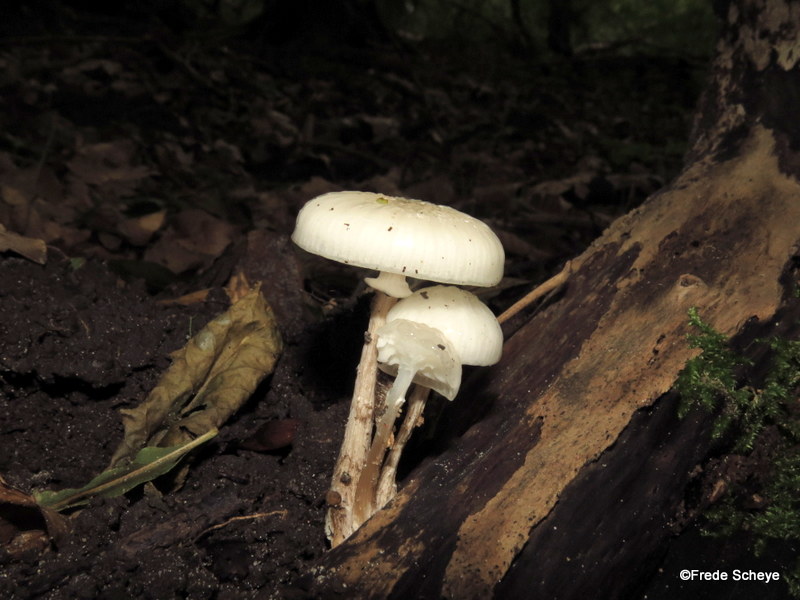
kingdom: Fungi
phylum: Basidiomycota
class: Agaricomycetes
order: Agaricales
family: Physalacriaceae
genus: Mucidula
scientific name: Mucidula mucida
